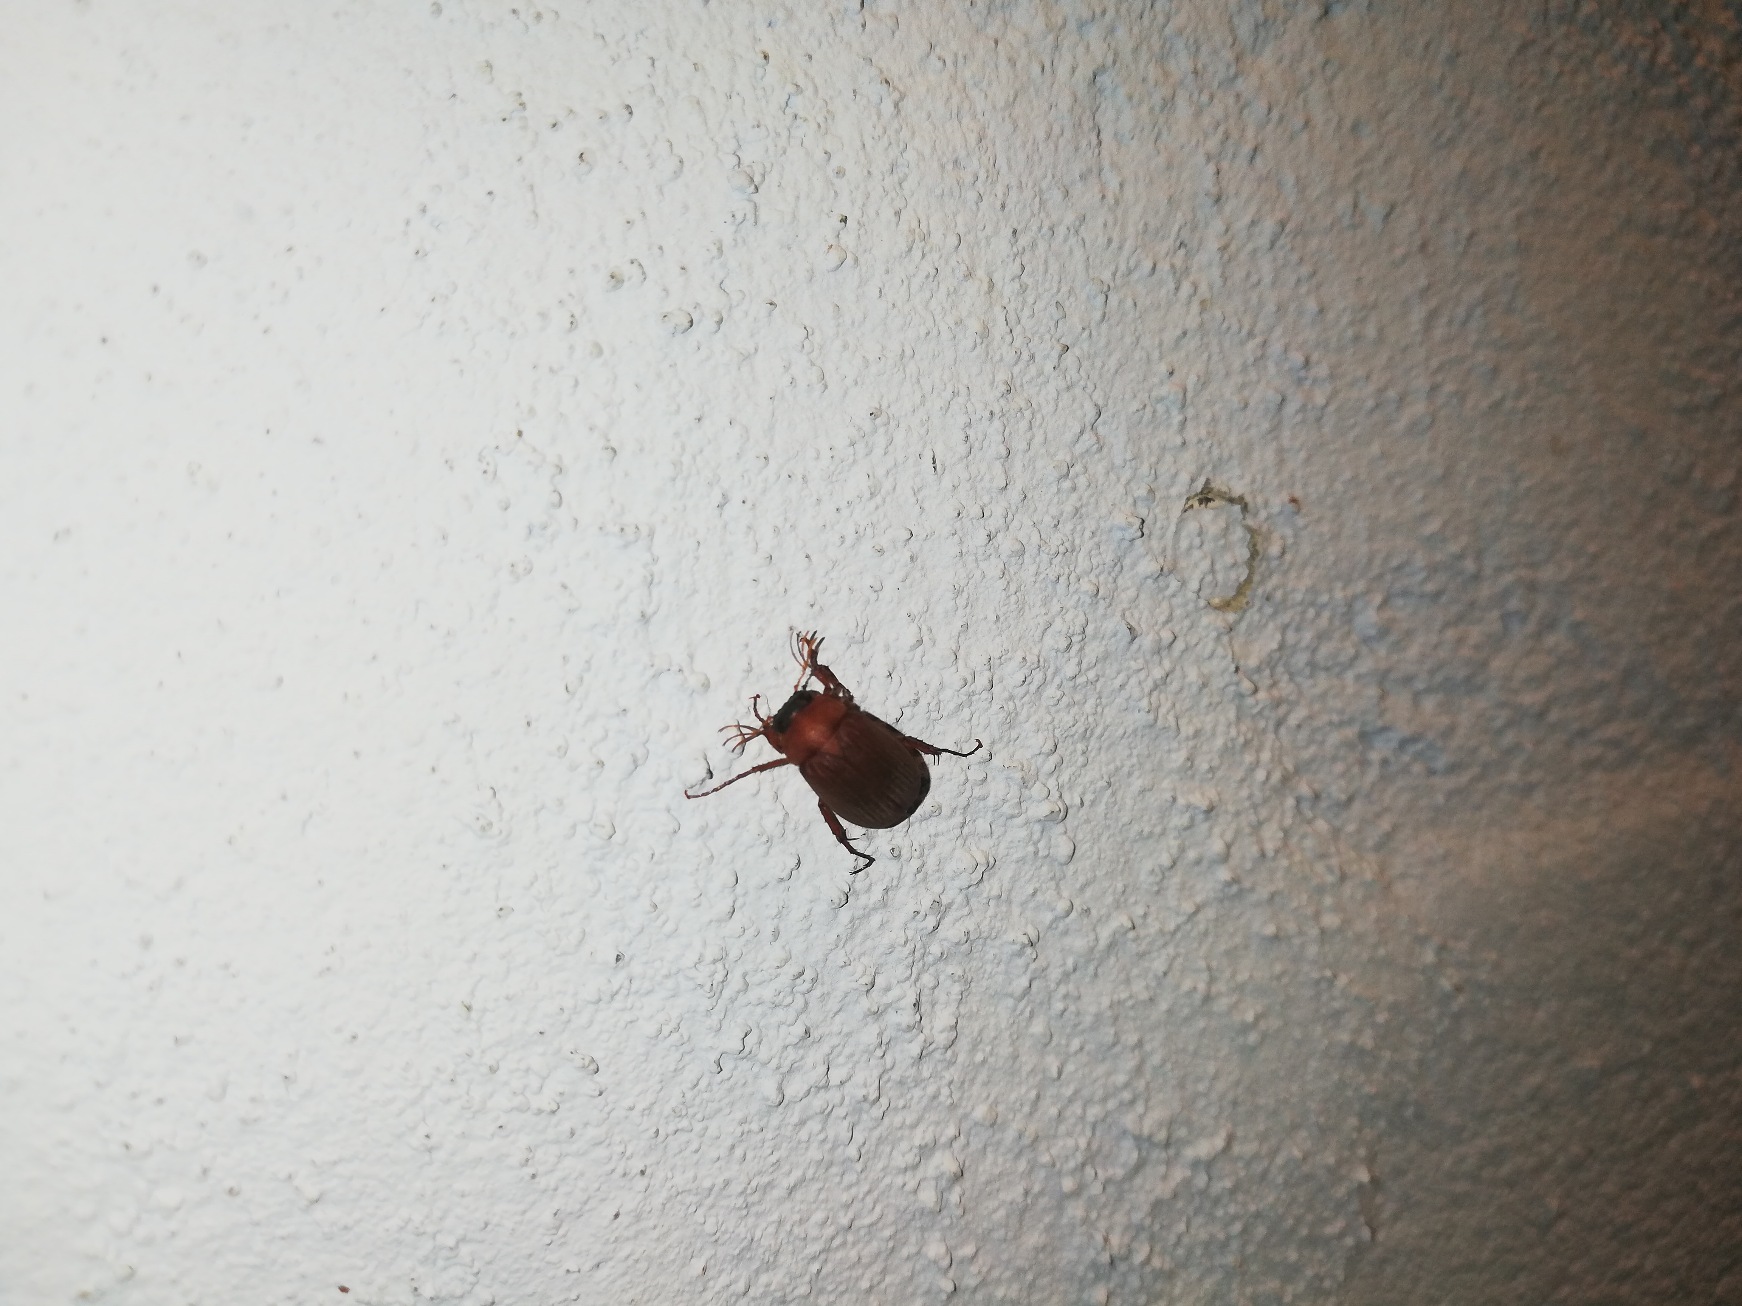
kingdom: Animalia
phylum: Arthropoda
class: Insecta
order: Coleoptera
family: Scarabaeidae
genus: Serica
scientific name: Serica brunnea
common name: Natoldenborre
